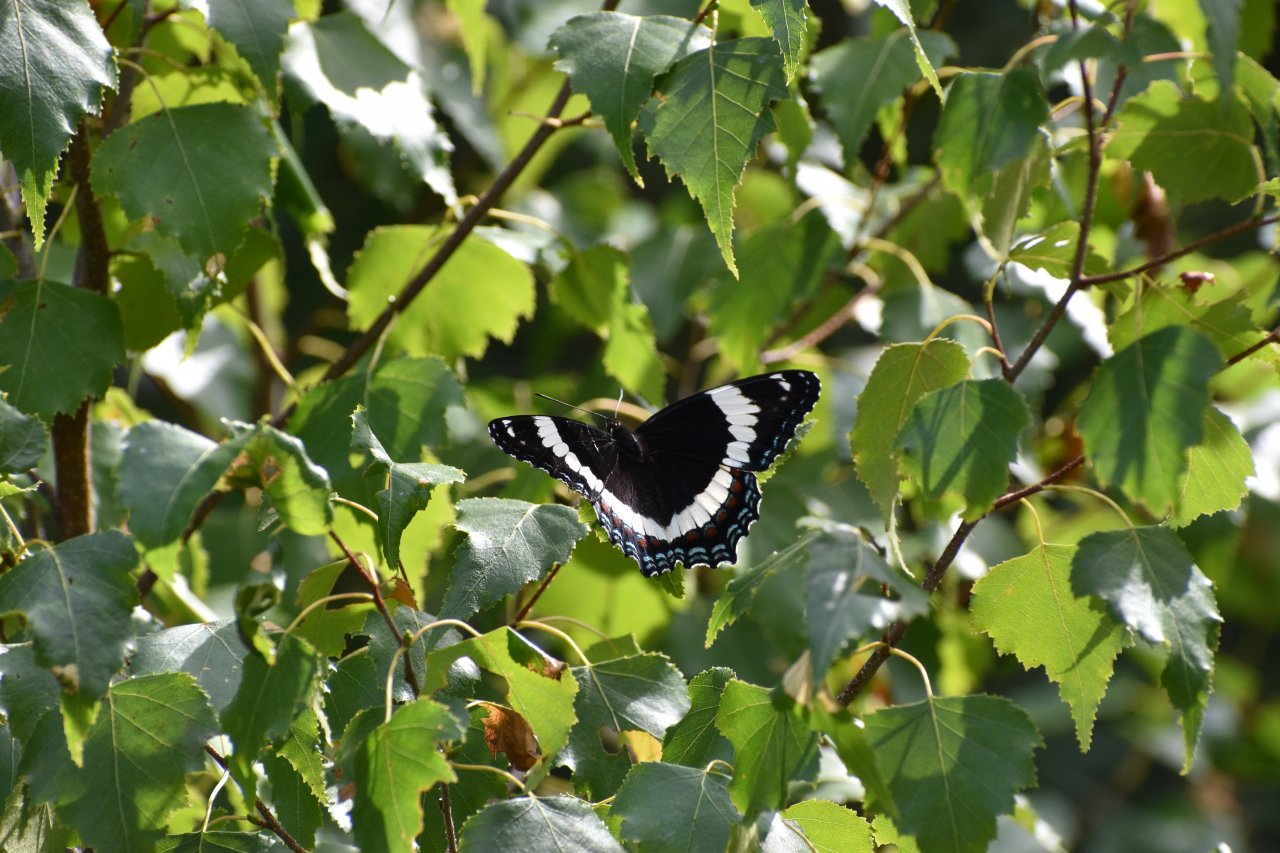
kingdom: Animalia
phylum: Arthropoda
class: Insecta
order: Lepidoptera
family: Nymphalidae
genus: Limenitis
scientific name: Limenitis arthemis
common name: Red-spotted Admiral
